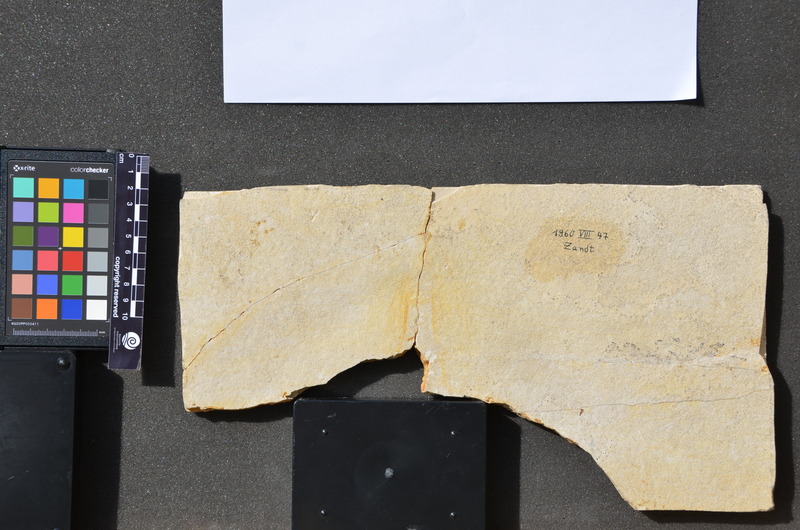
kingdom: Animalia
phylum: Chordata
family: Aspidorhynchidae
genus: Aspidorhynchus
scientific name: Aspidorhynchus
